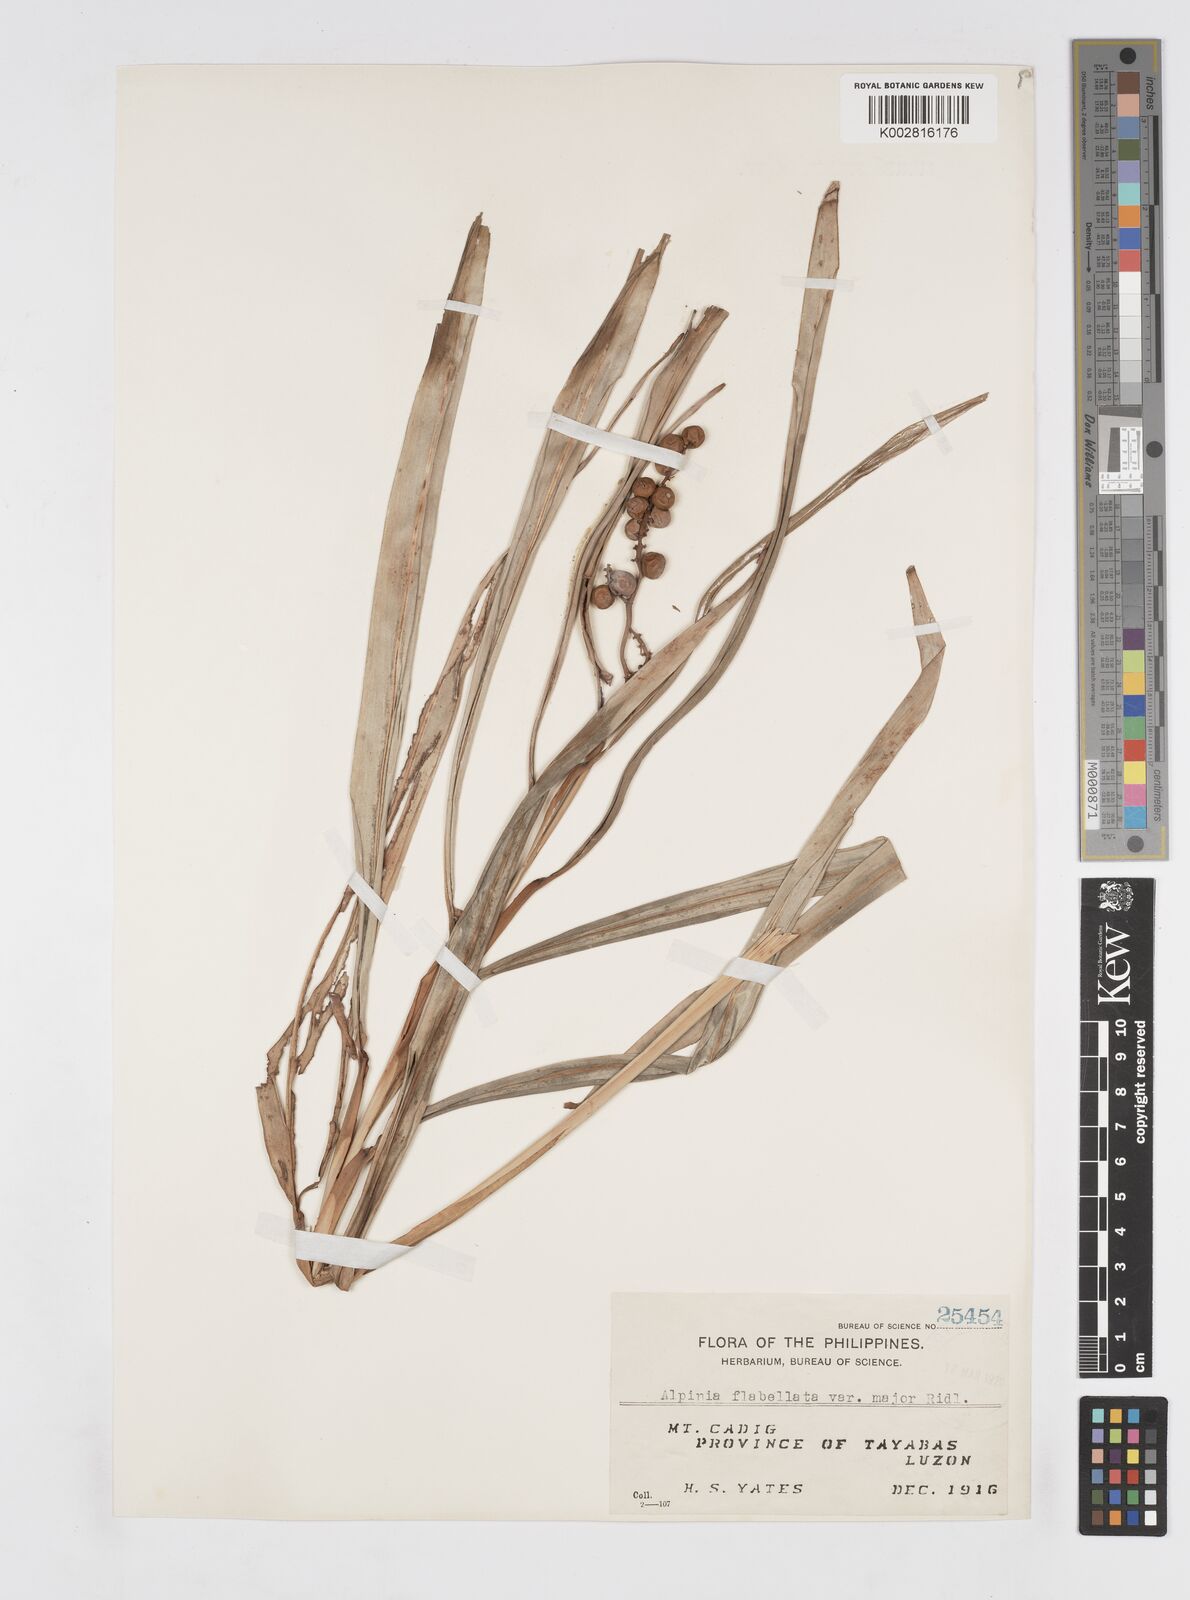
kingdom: Plantae
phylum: Tracheophyta
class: Liliopsida
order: Zingiberales
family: Zingiberaceae
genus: Alpinia
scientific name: Alpinia flabellata
